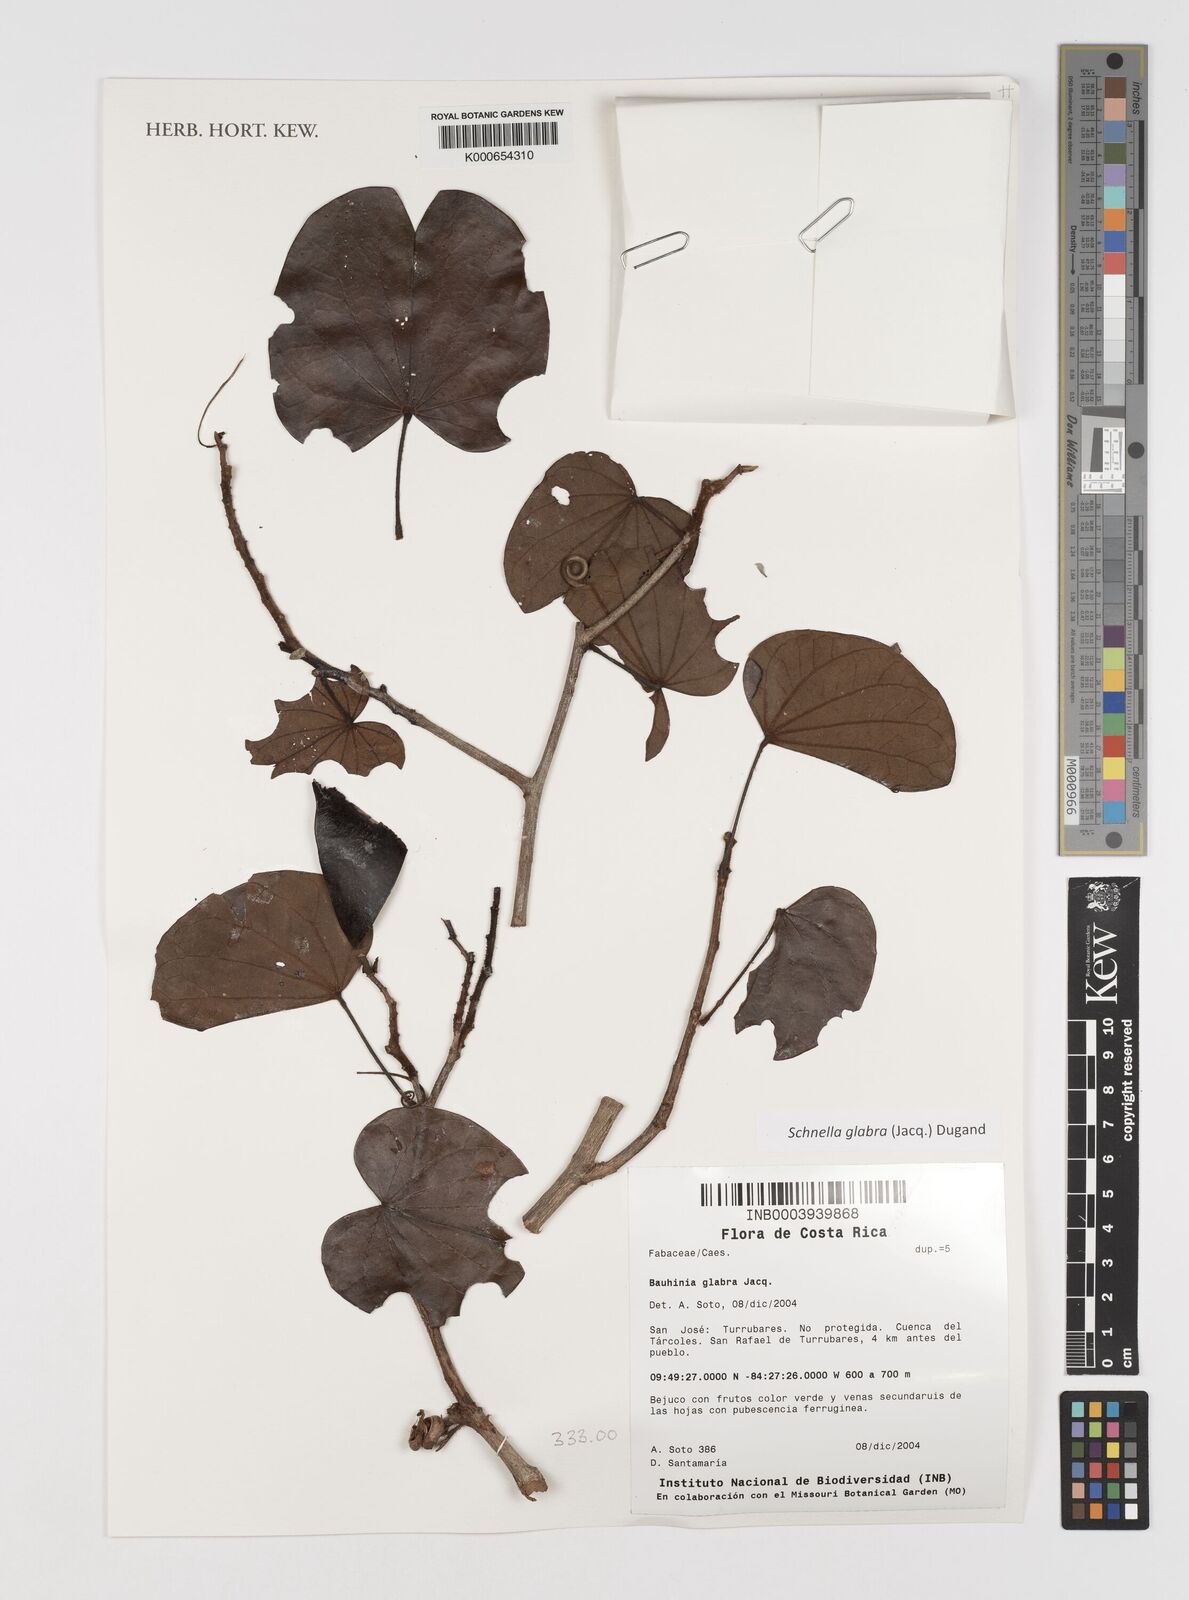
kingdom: Plantae
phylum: Tracheophyta
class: Magnoliopsida
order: Fabales
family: Fabaceae
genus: Schnella
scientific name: Schnella glabra
